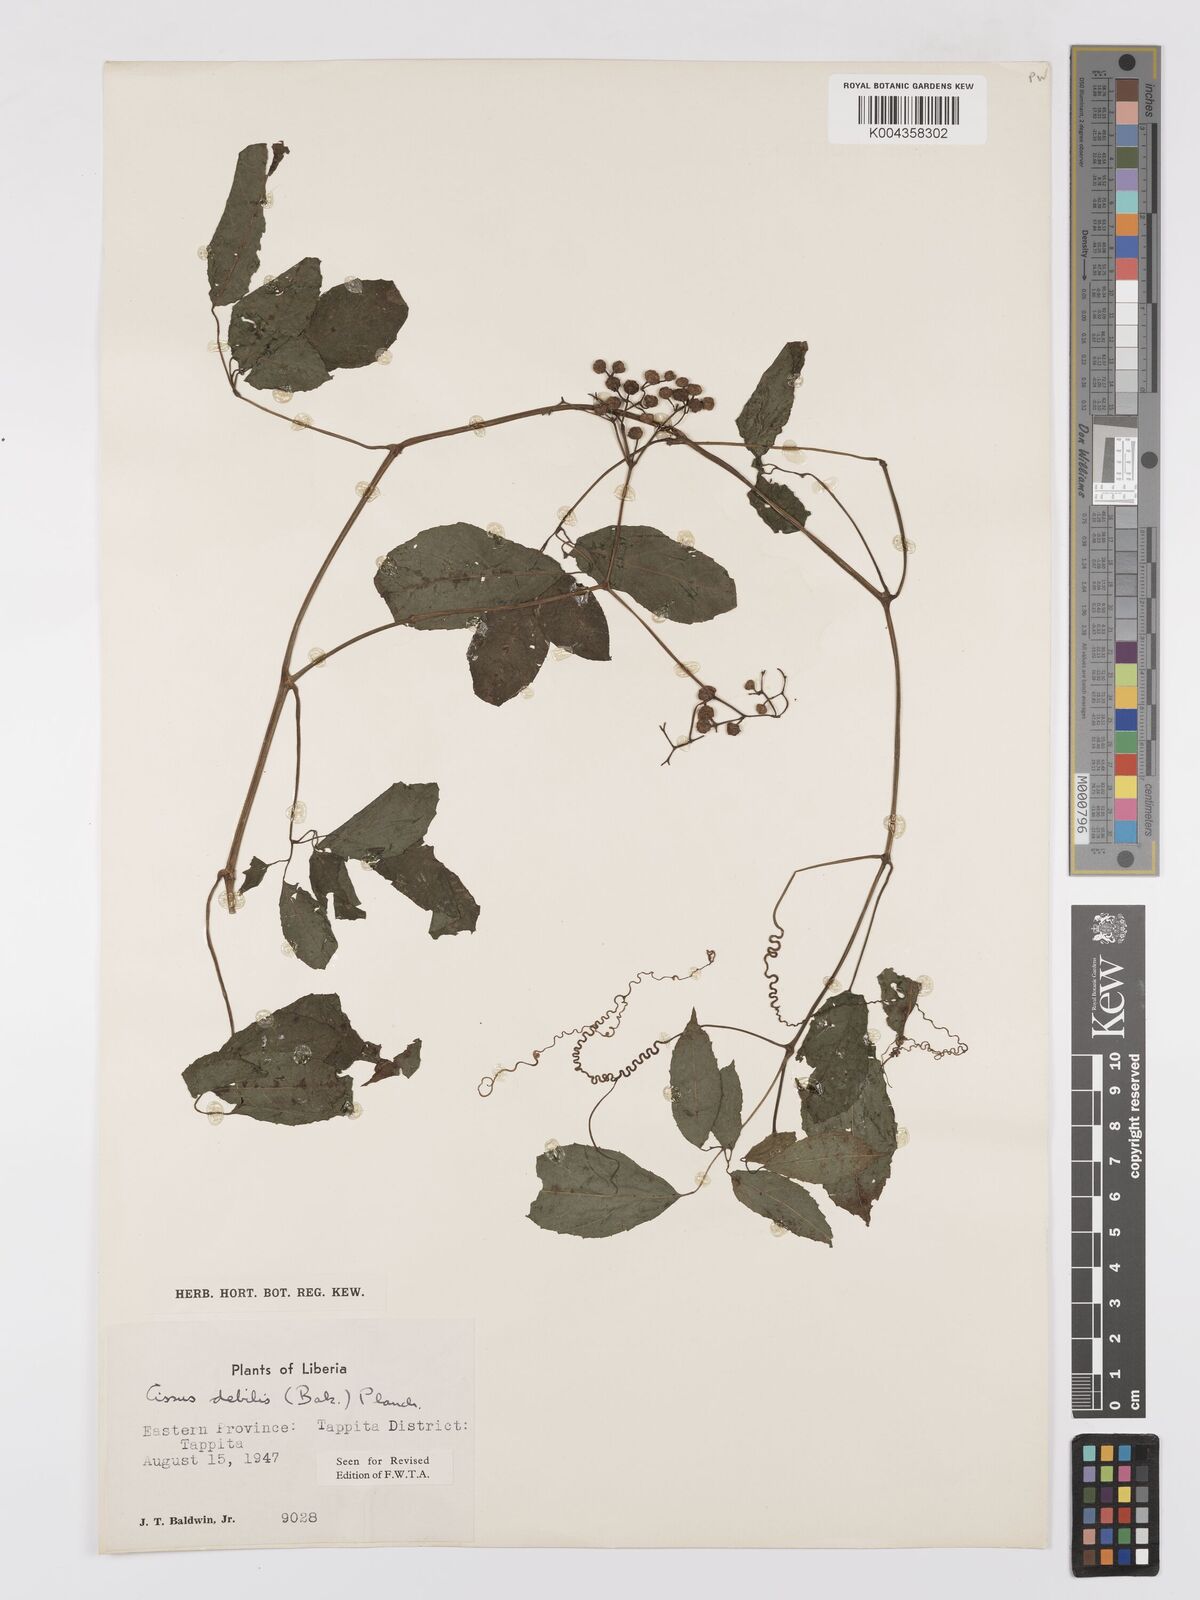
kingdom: Plantae
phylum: Tracheophyta
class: Magnoliopsida
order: Vitales
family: Vitaceae
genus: Afrocayratia
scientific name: Afrocayratia debilis
